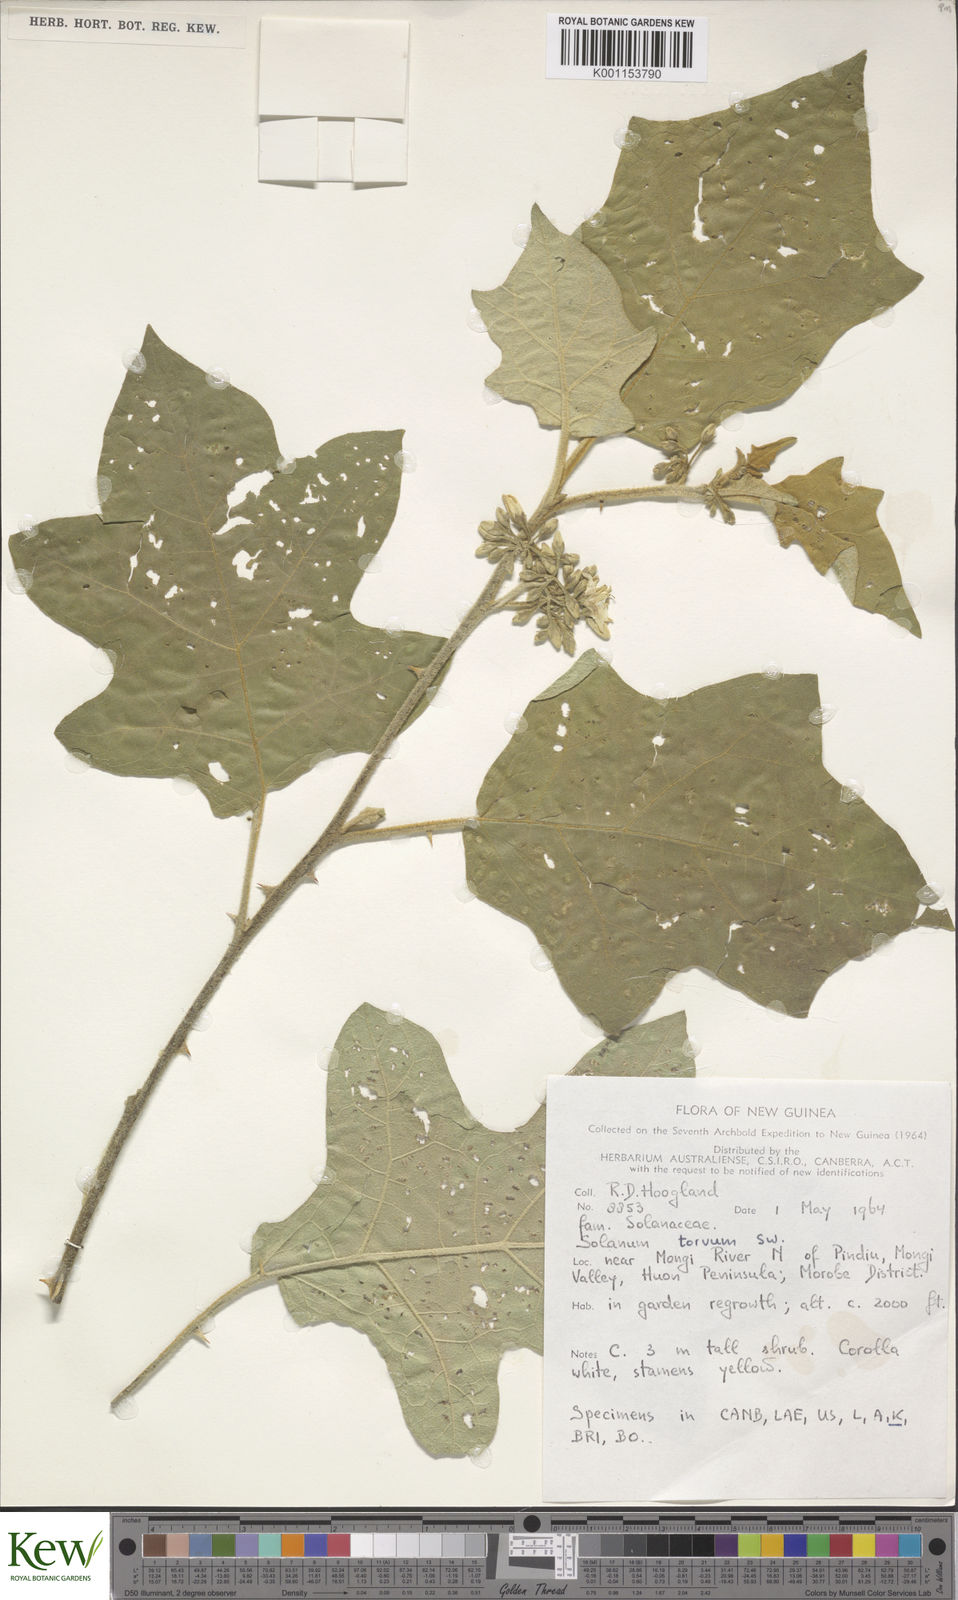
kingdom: Plantae
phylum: Tracheophyta
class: Magnoliopsida
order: Solanales
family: Solanaceae
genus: Solanum
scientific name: Solanum torvum
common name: Turkey berry
